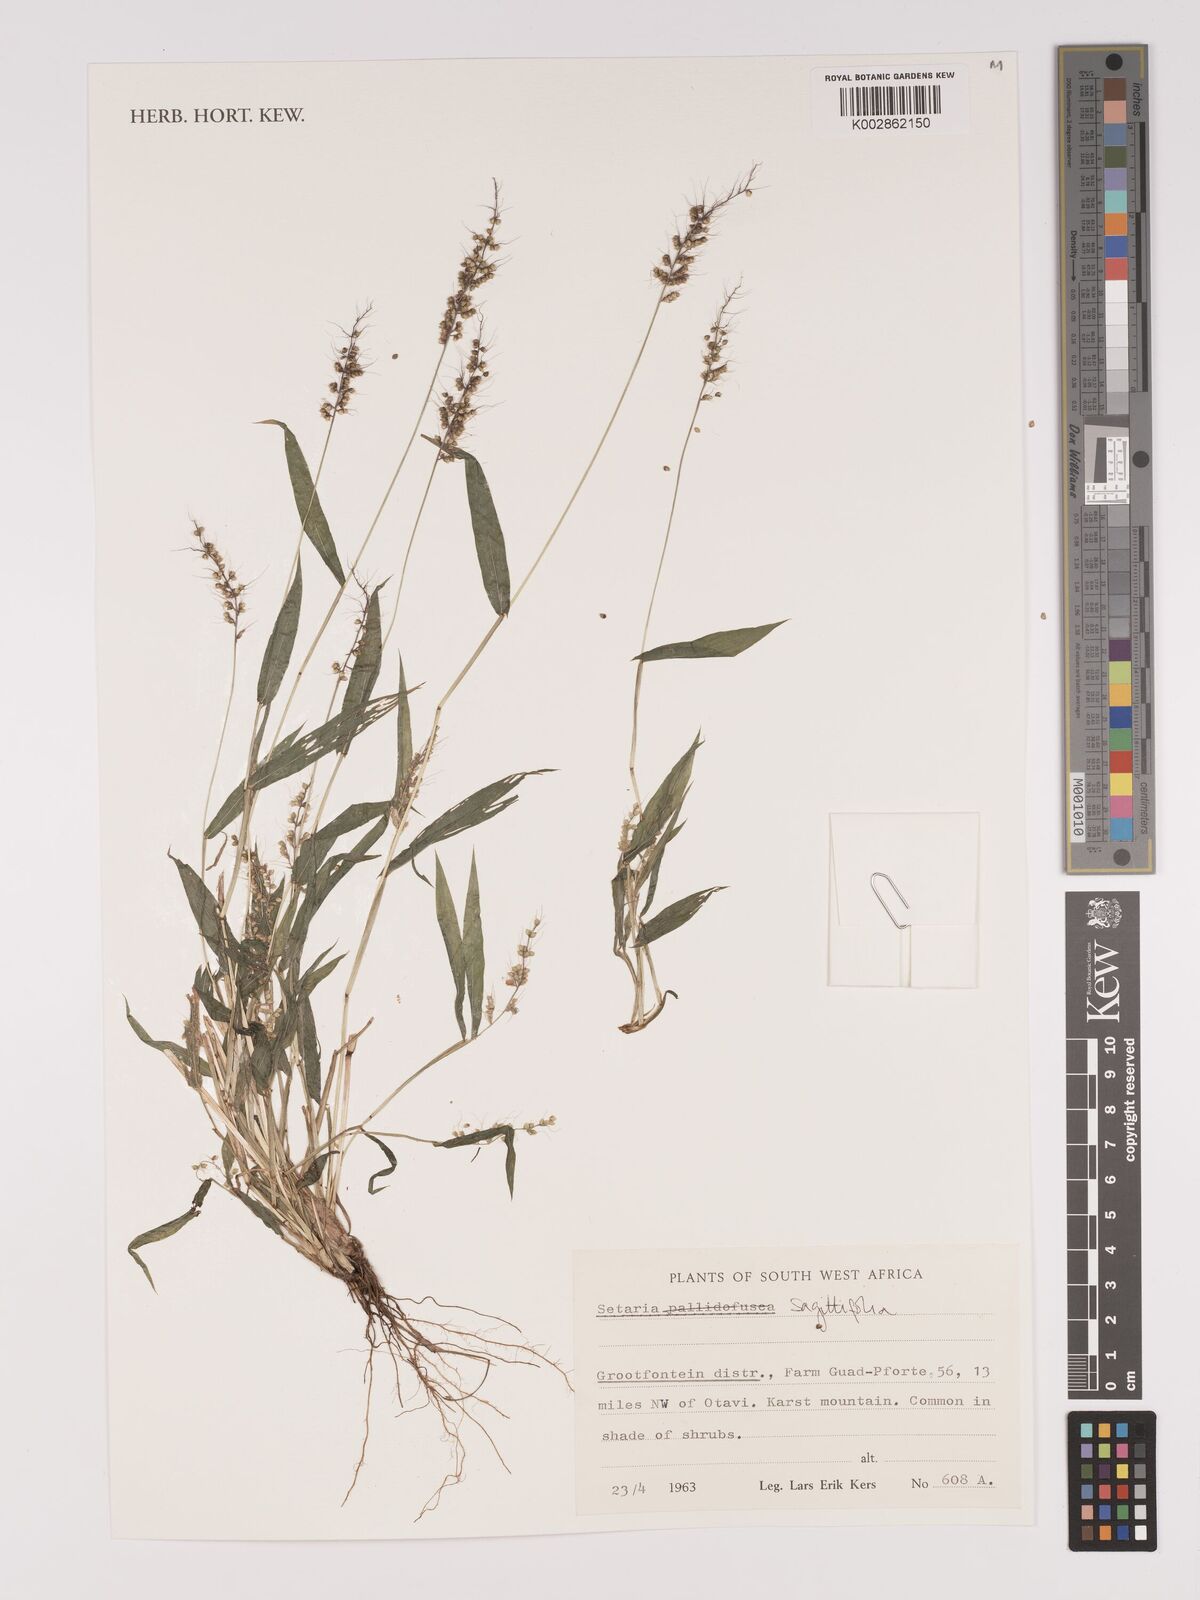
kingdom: Plantae
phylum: Tracheophyta
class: Liliopsida
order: Poales
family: Poaceae
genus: Setaria
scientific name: Setaria sagittifolia
